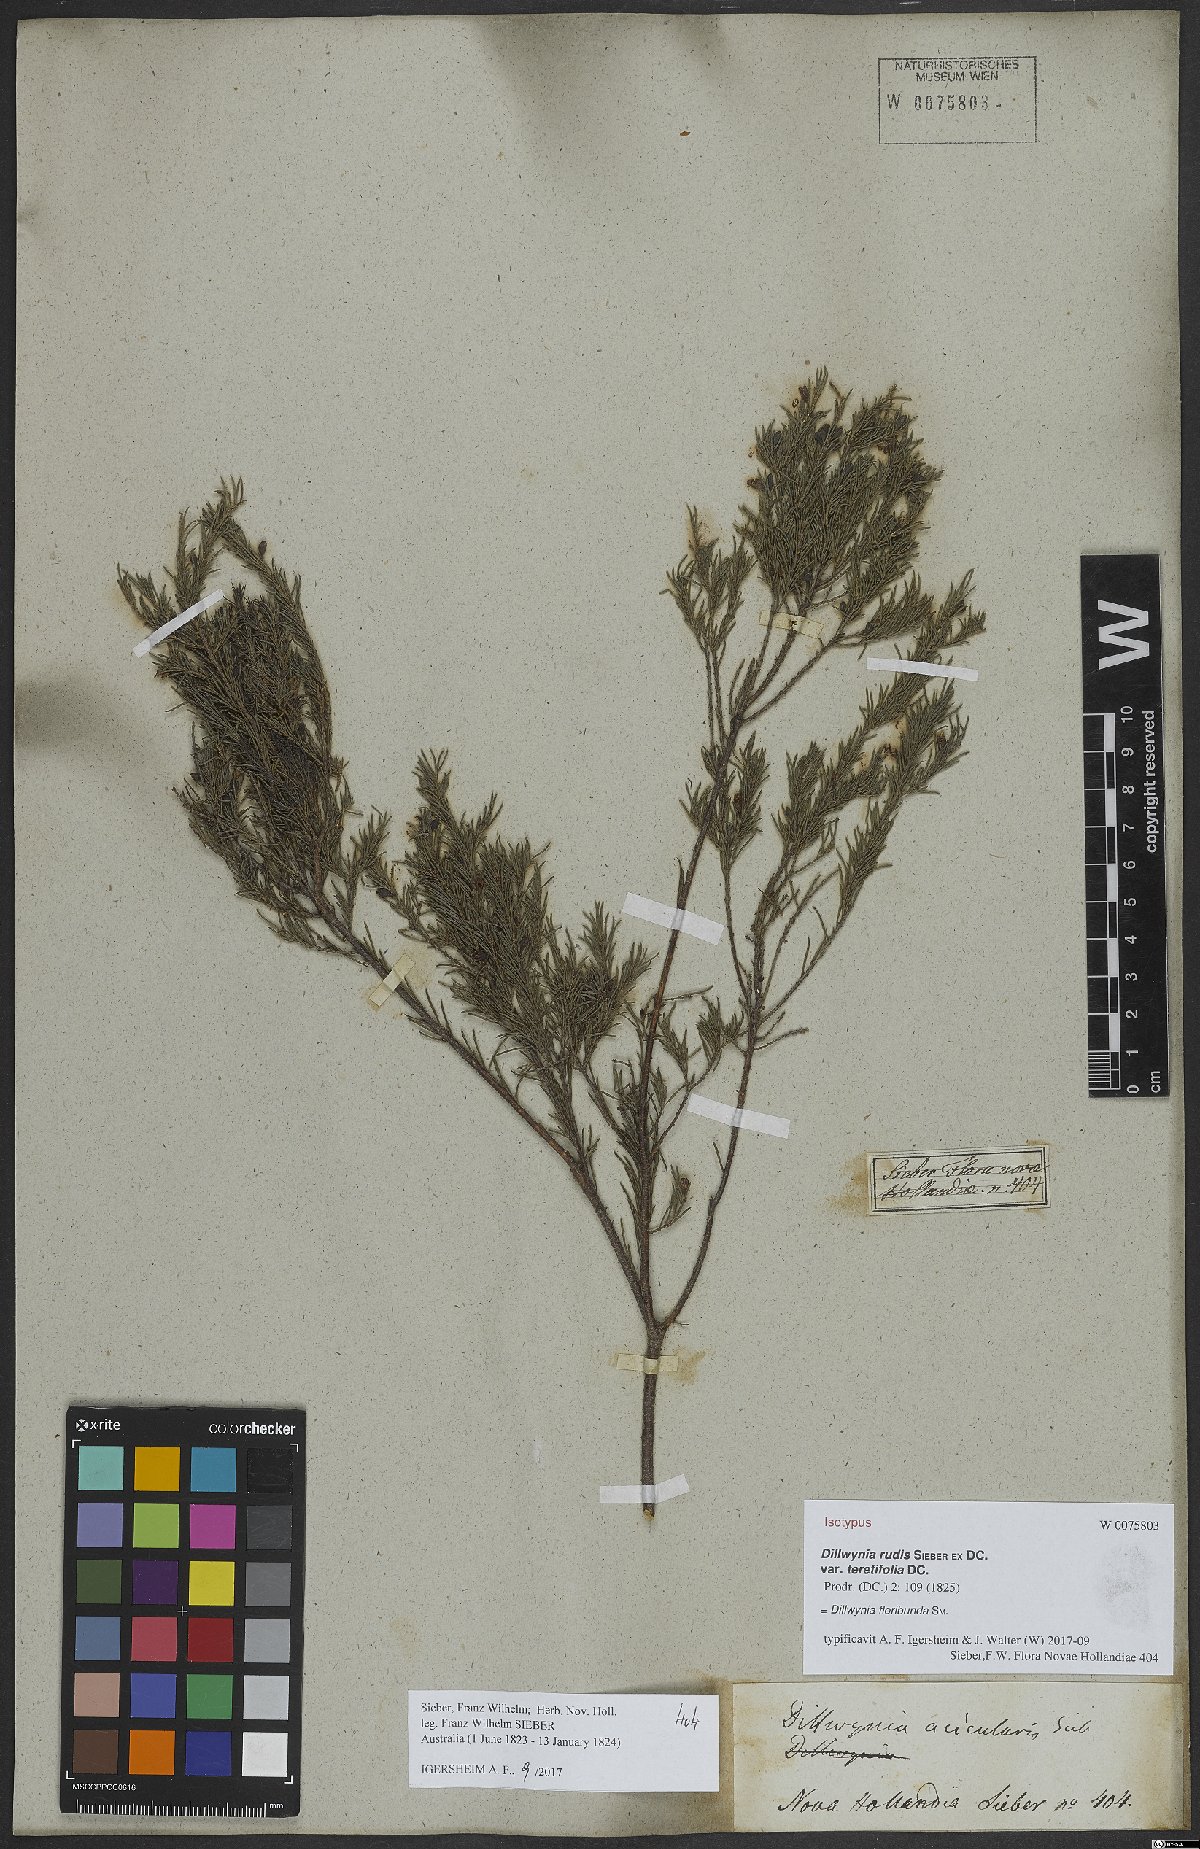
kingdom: Plantae
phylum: Tracheophyta
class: Magnoliopsida
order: Fabales
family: Fabaceae
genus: Dillwynia
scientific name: Dillwynia floribunda
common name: Eggs-and-bacon
